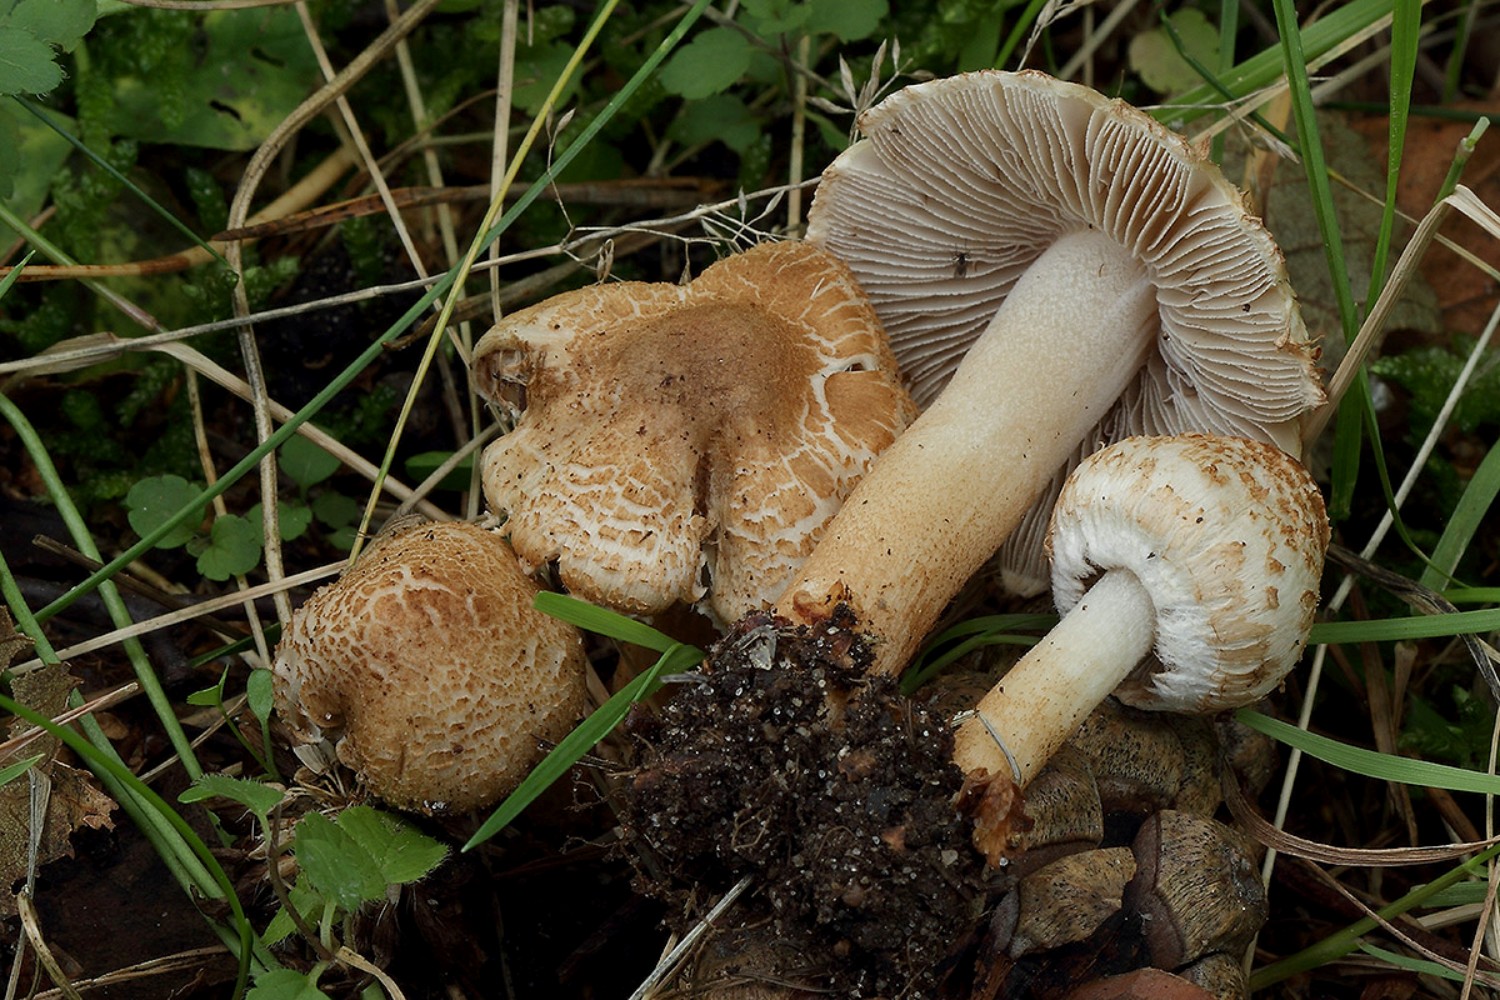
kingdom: Fungi
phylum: Basidiomycota
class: Agaricomycetes
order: Agaricales
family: Inocybaceae
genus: Inocybe
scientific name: Inocybe appendiculata
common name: tandet trævlhat
